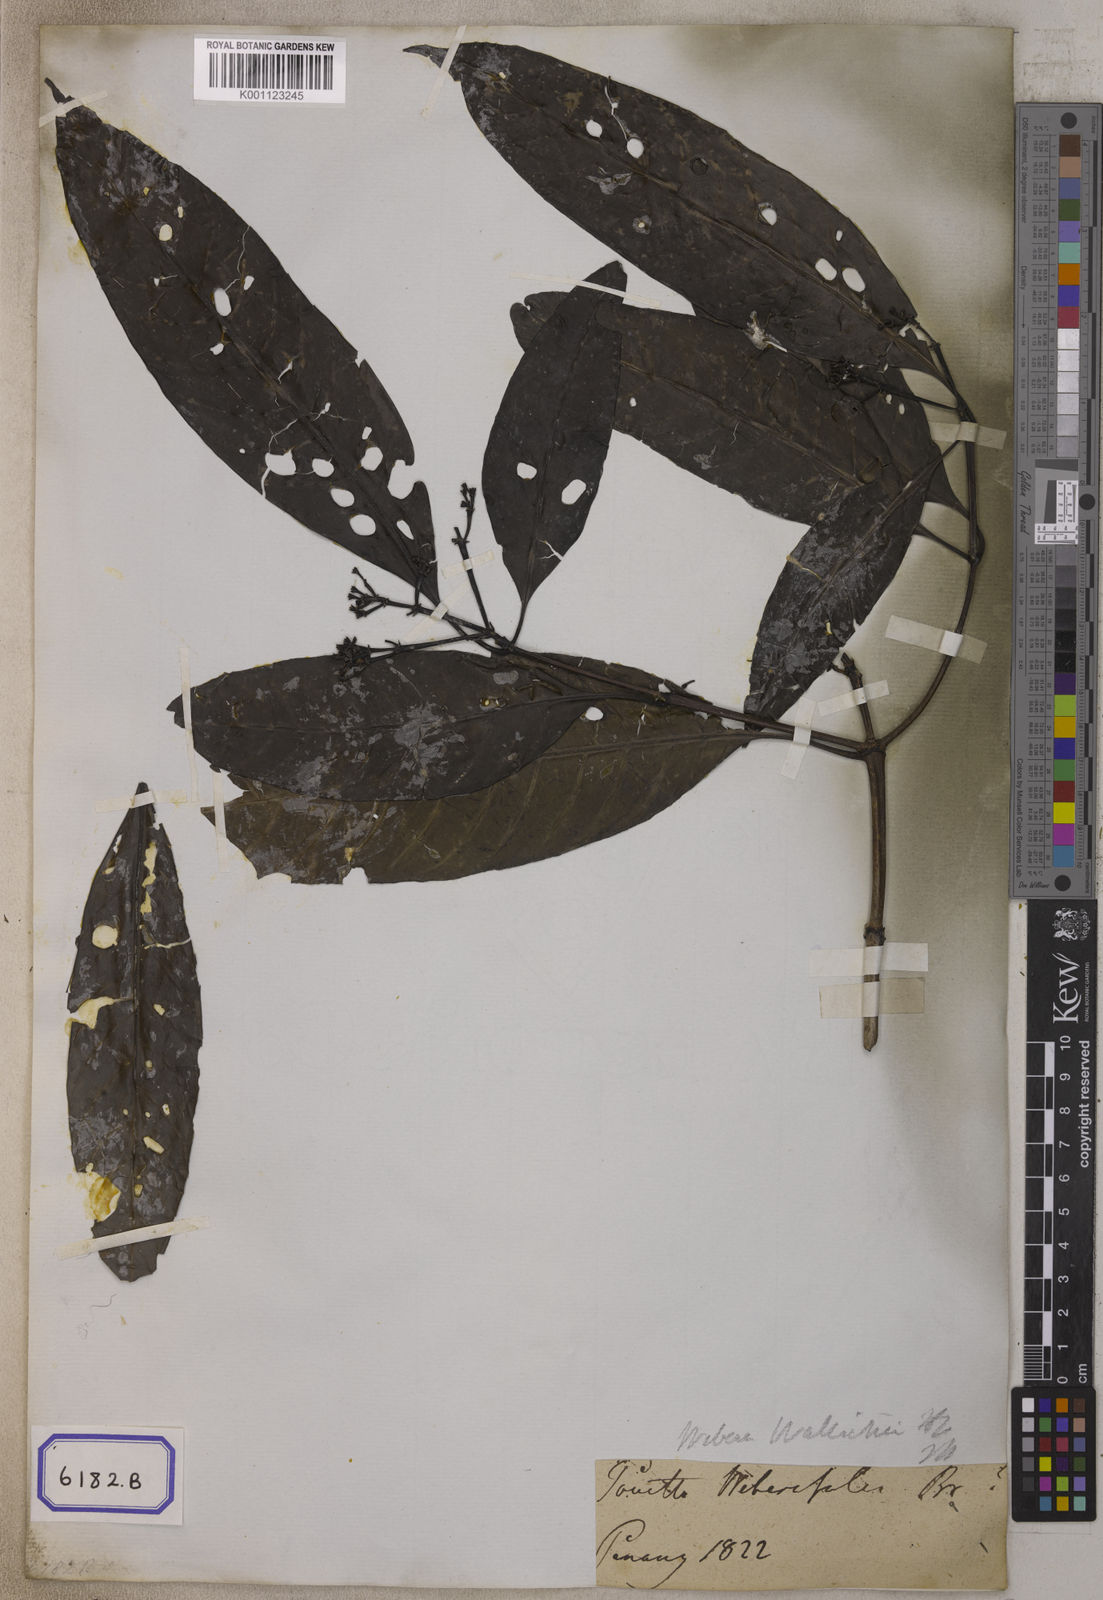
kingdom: Plantae
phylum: Tracheophyta
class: Magnoliopsida
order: Gentianales
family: Rubiaceae
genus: Pavetta
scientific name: Pavetta
